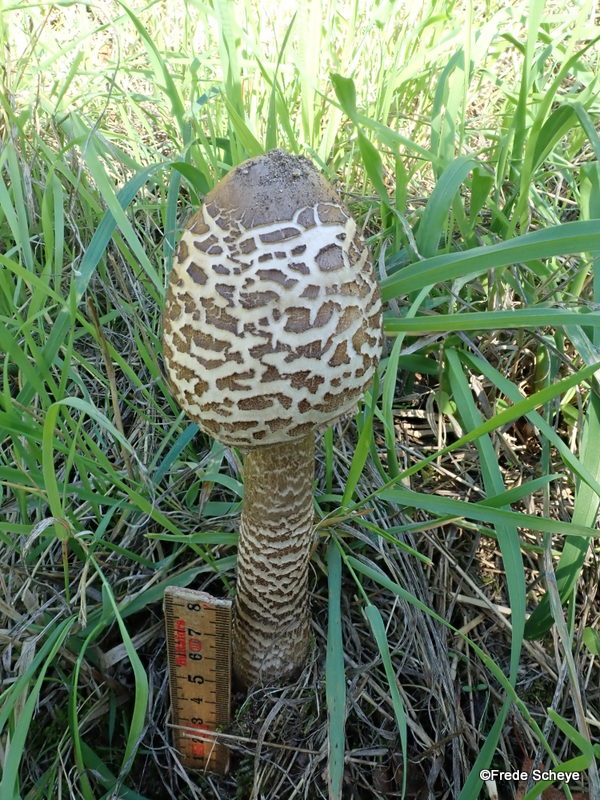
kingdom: Fungi
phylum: Basidiomycota
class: Agaricomycetes
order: Agaricales
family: Agaricaceae
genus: Macrolepiota
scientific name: Macrolepiota procera
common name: stor kæmpeparasolhat
